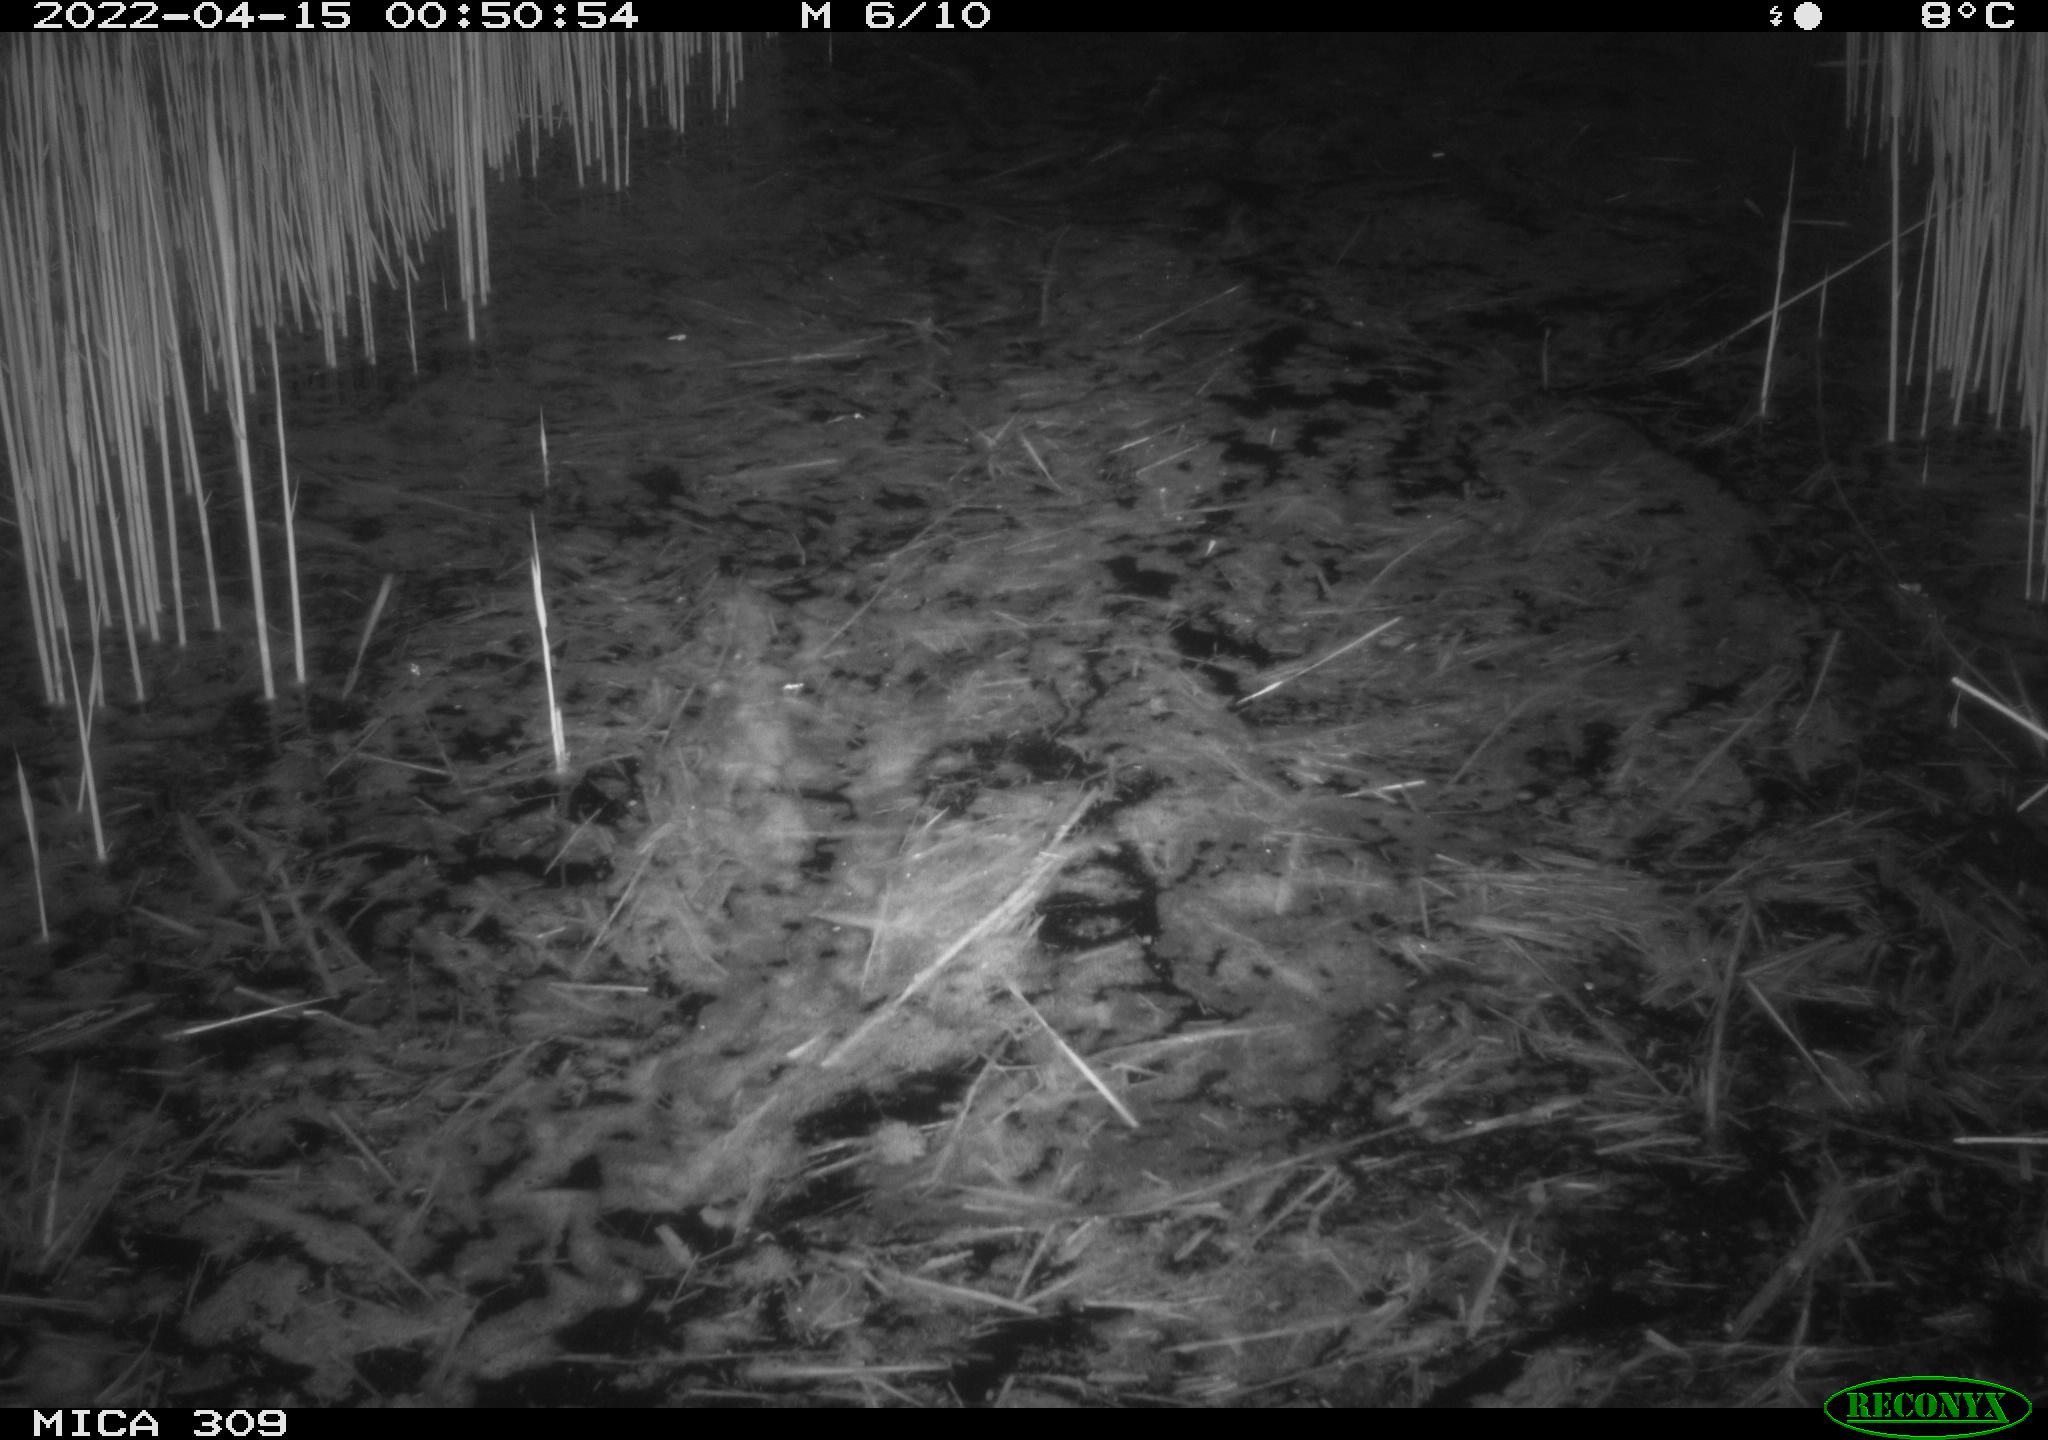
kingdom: Animalia
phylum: Chordata
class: Aves
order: Anseriformes
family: Anatidae
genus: Anas
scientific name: Anas platyrhynchos
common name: Mallard
